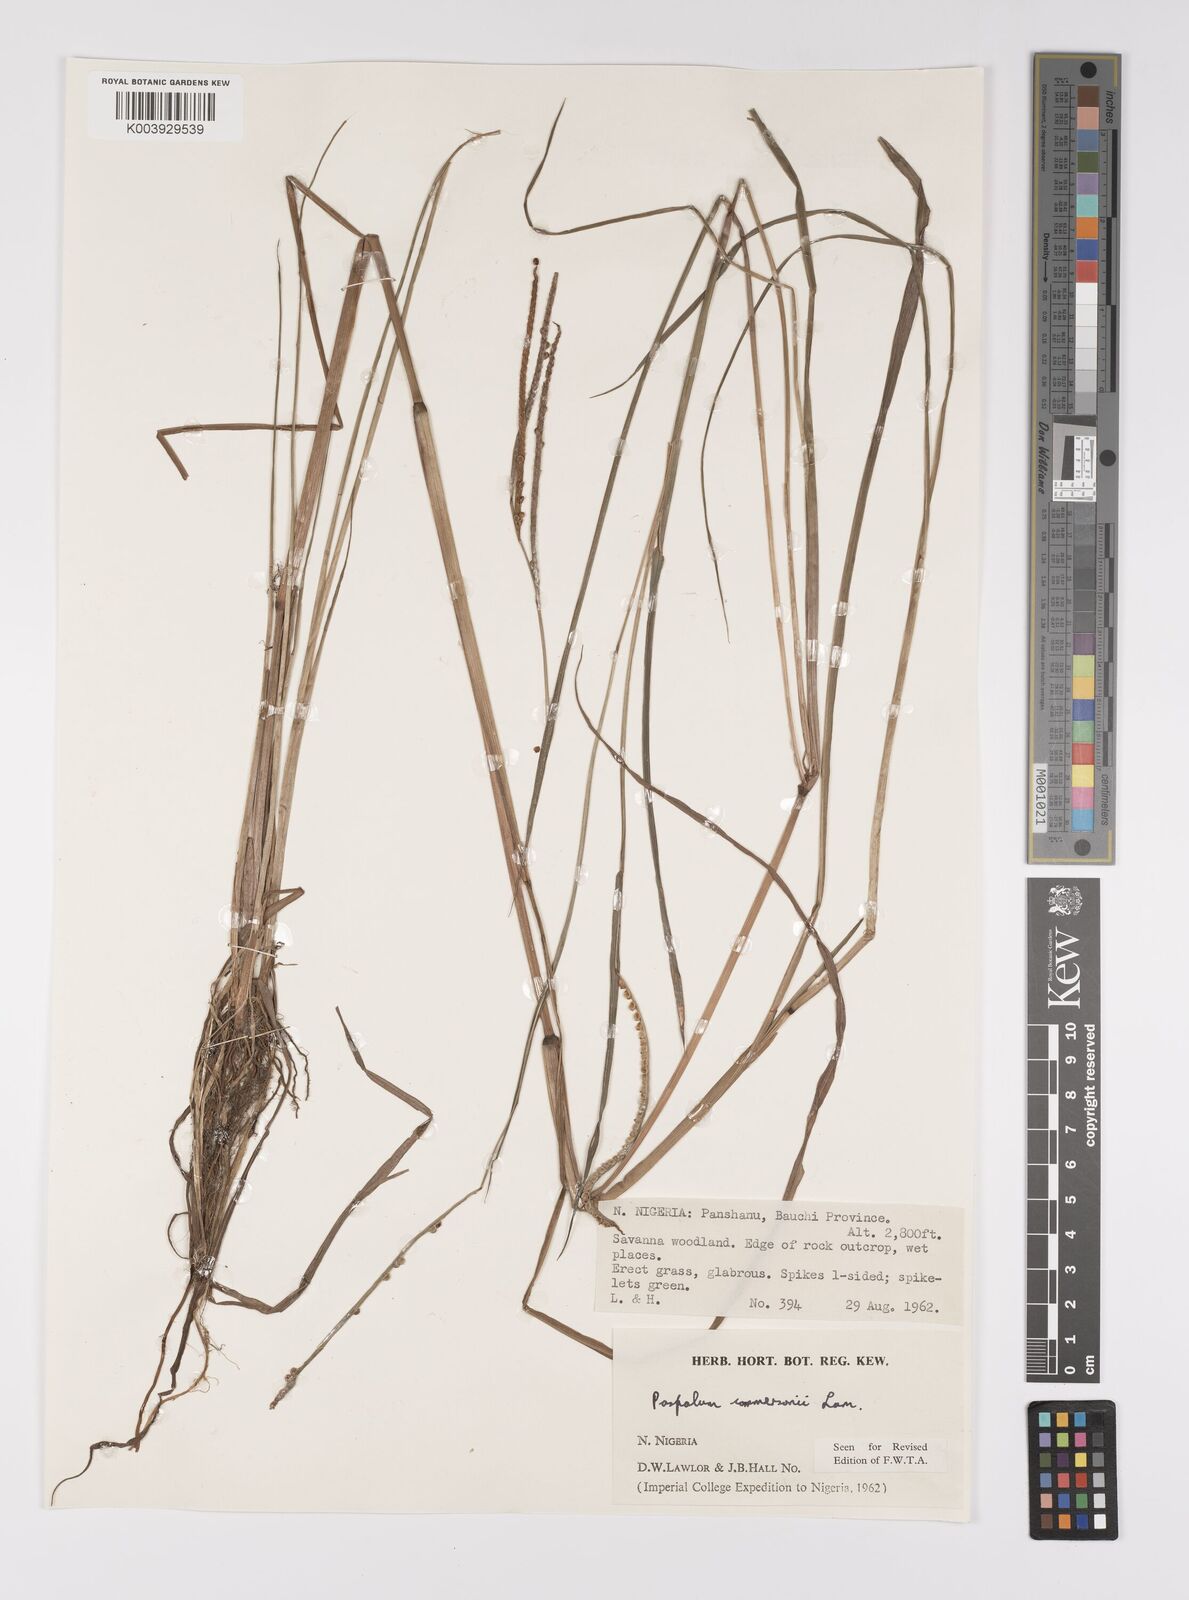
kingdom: Plantae
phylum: Tracheophyta
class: Liliopsida
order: Poales
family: Poaceae
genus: Paspalum
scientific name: Paspalum scrobiculatum
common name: Kodo millet
